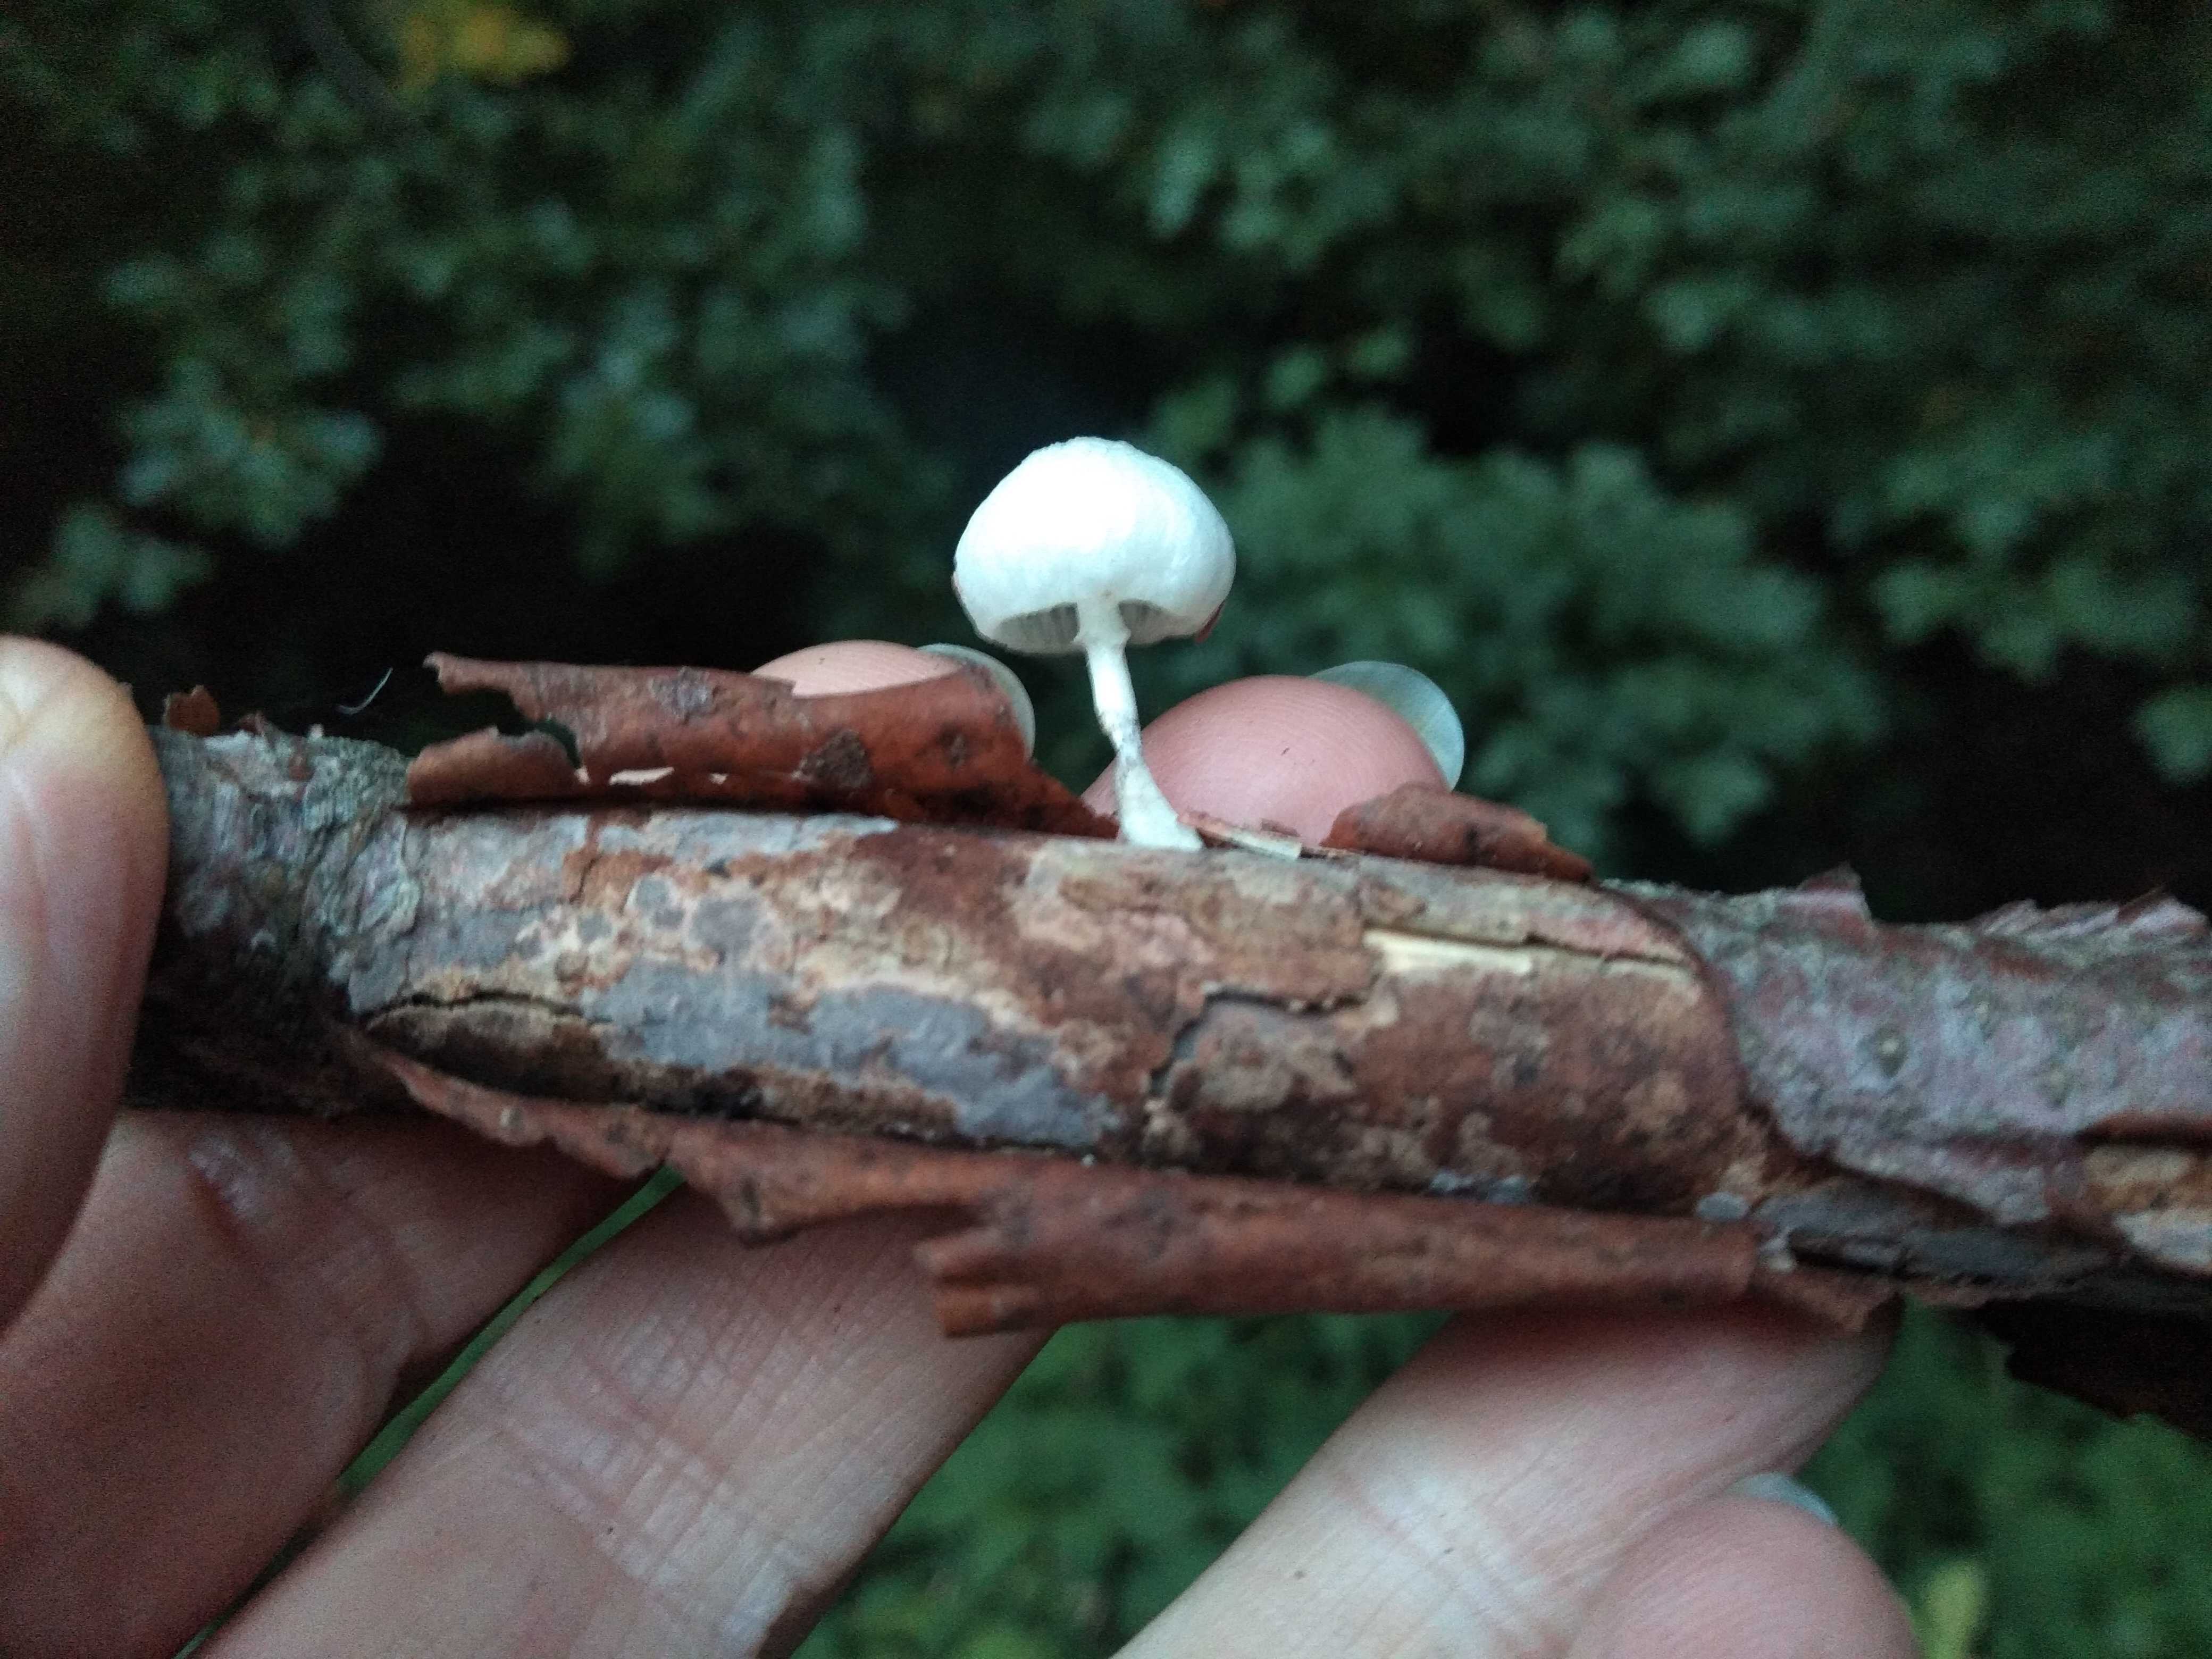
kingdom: Fungi
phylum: Basidiomycota
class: Agaricomycetes
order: Agaricales
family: Physalacriaceae
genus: Mucidula
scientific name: Mucidula mucida
